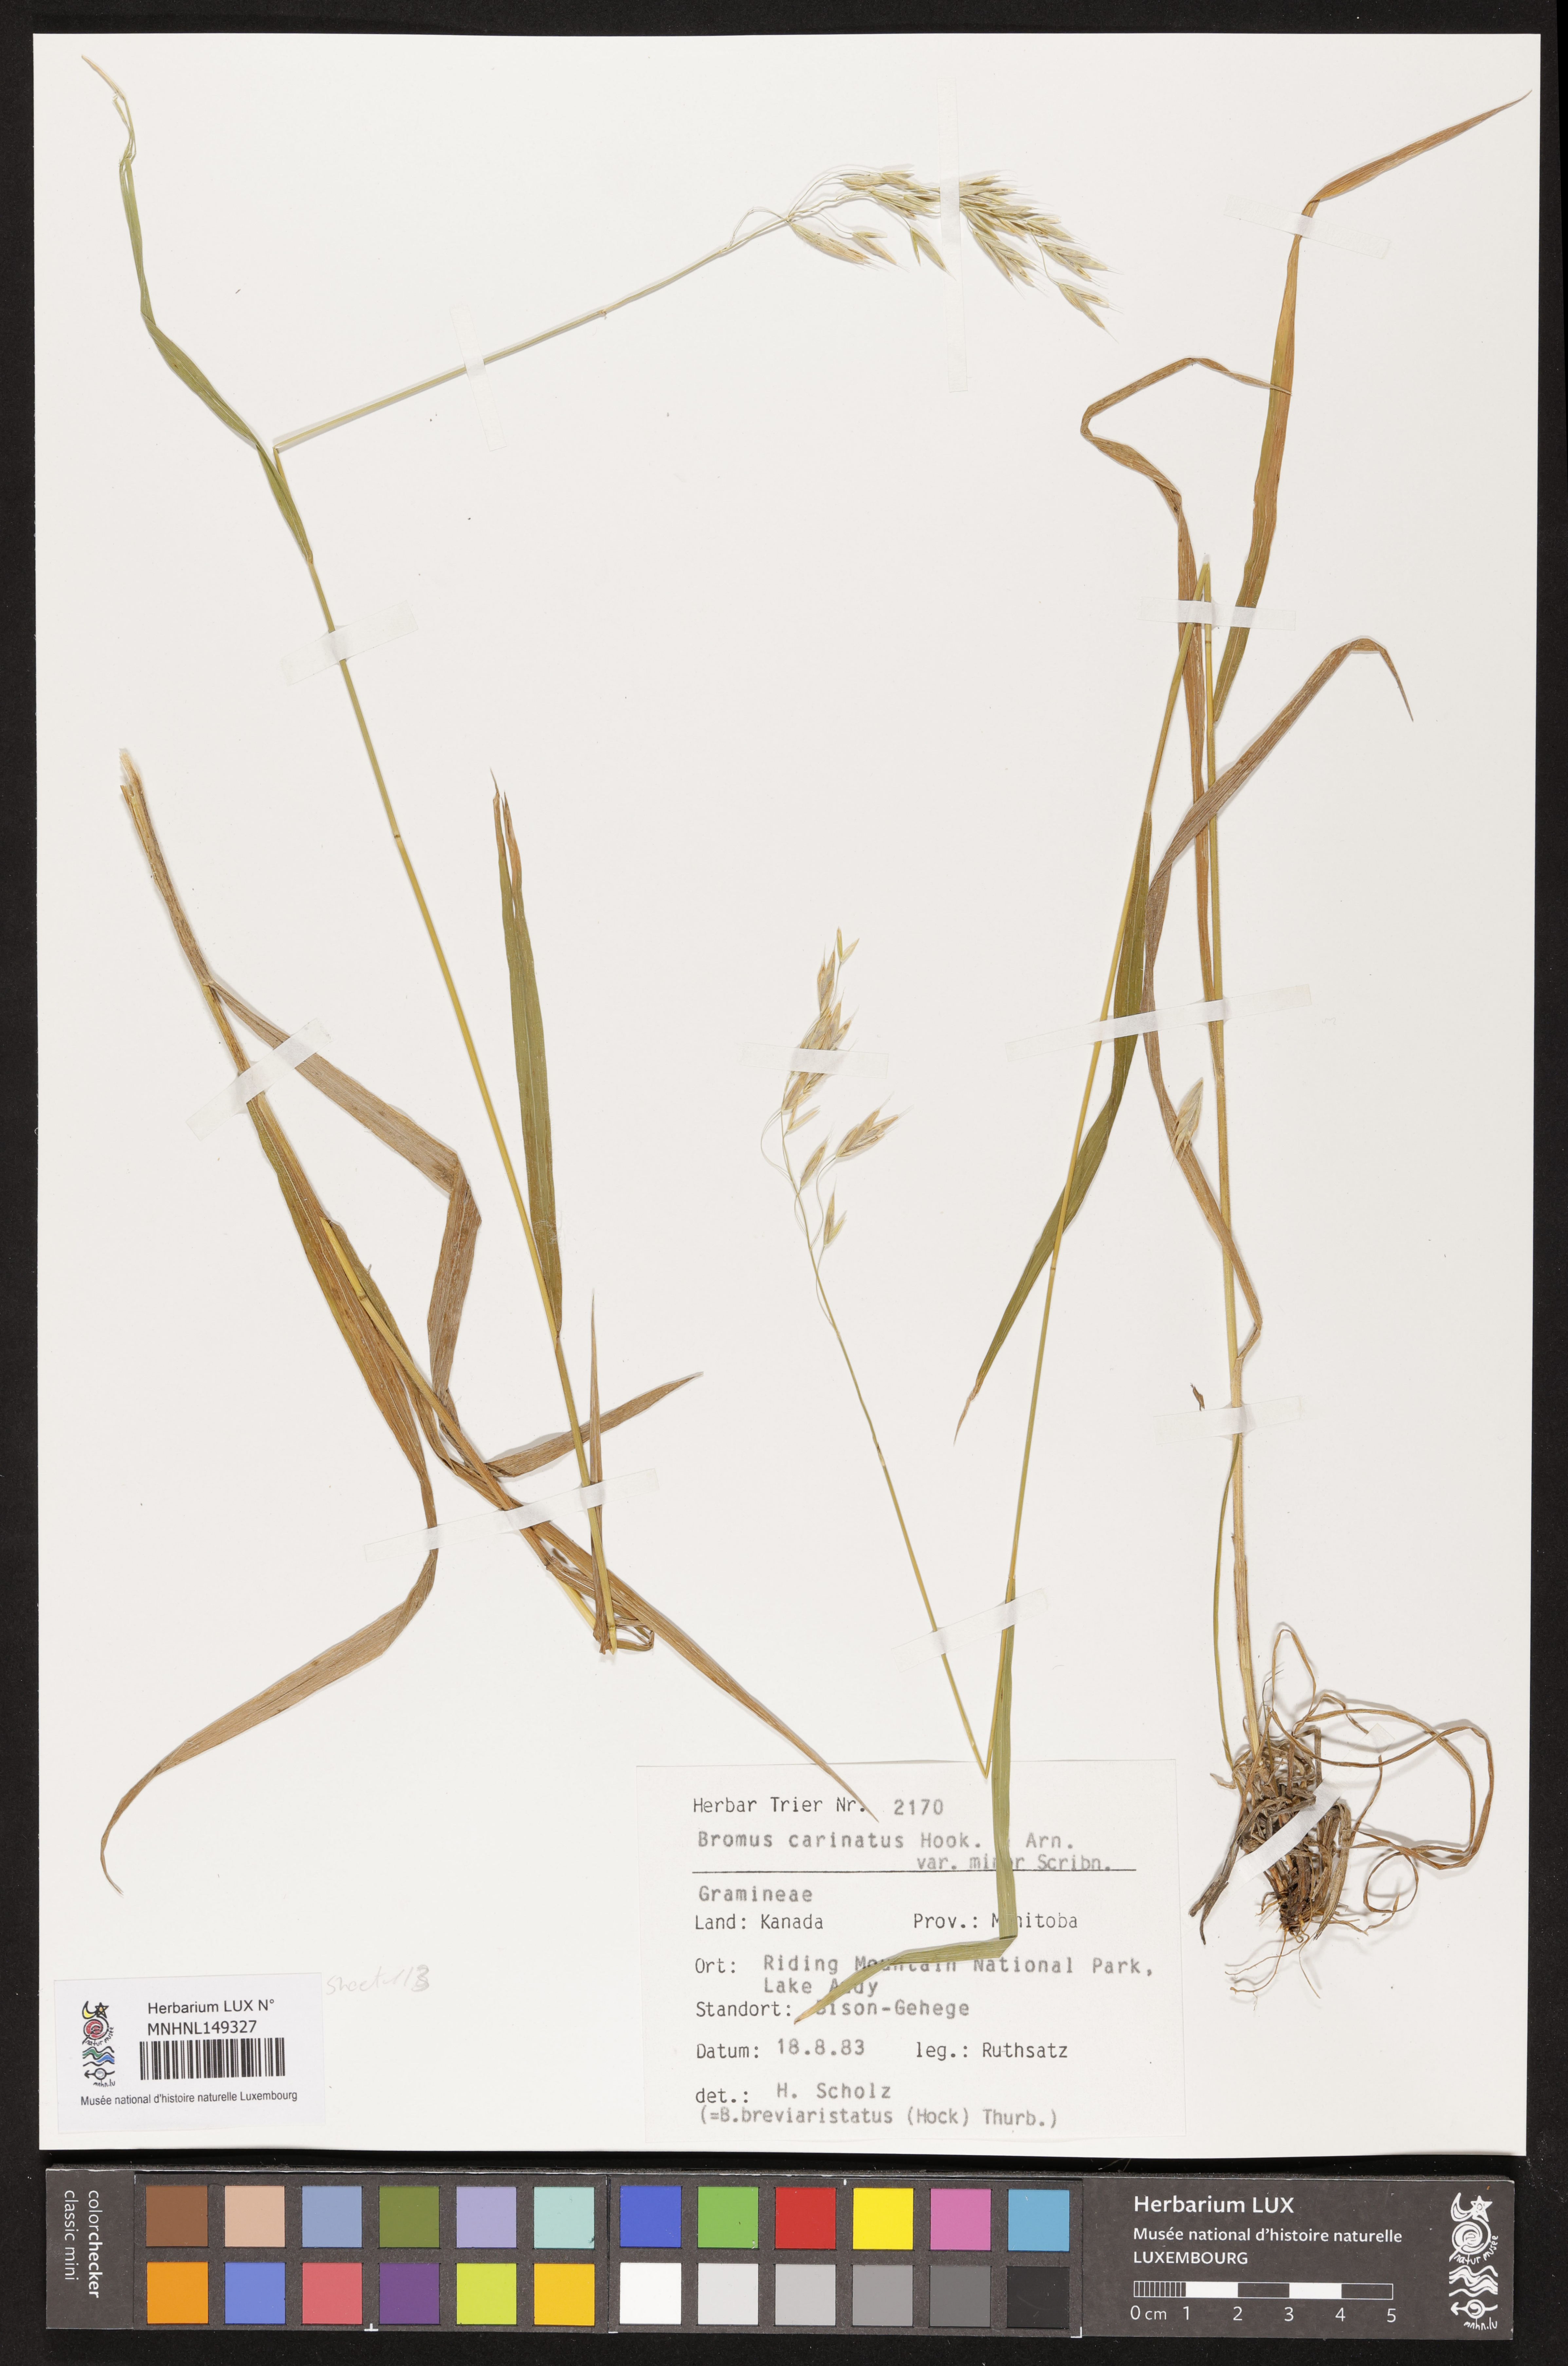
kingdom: Plantae
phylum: Tracheophyta
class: Liliopsida
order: Poales
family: Poaceae
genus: Bromus
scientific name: Bromus carinatus
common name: Mountain brome
